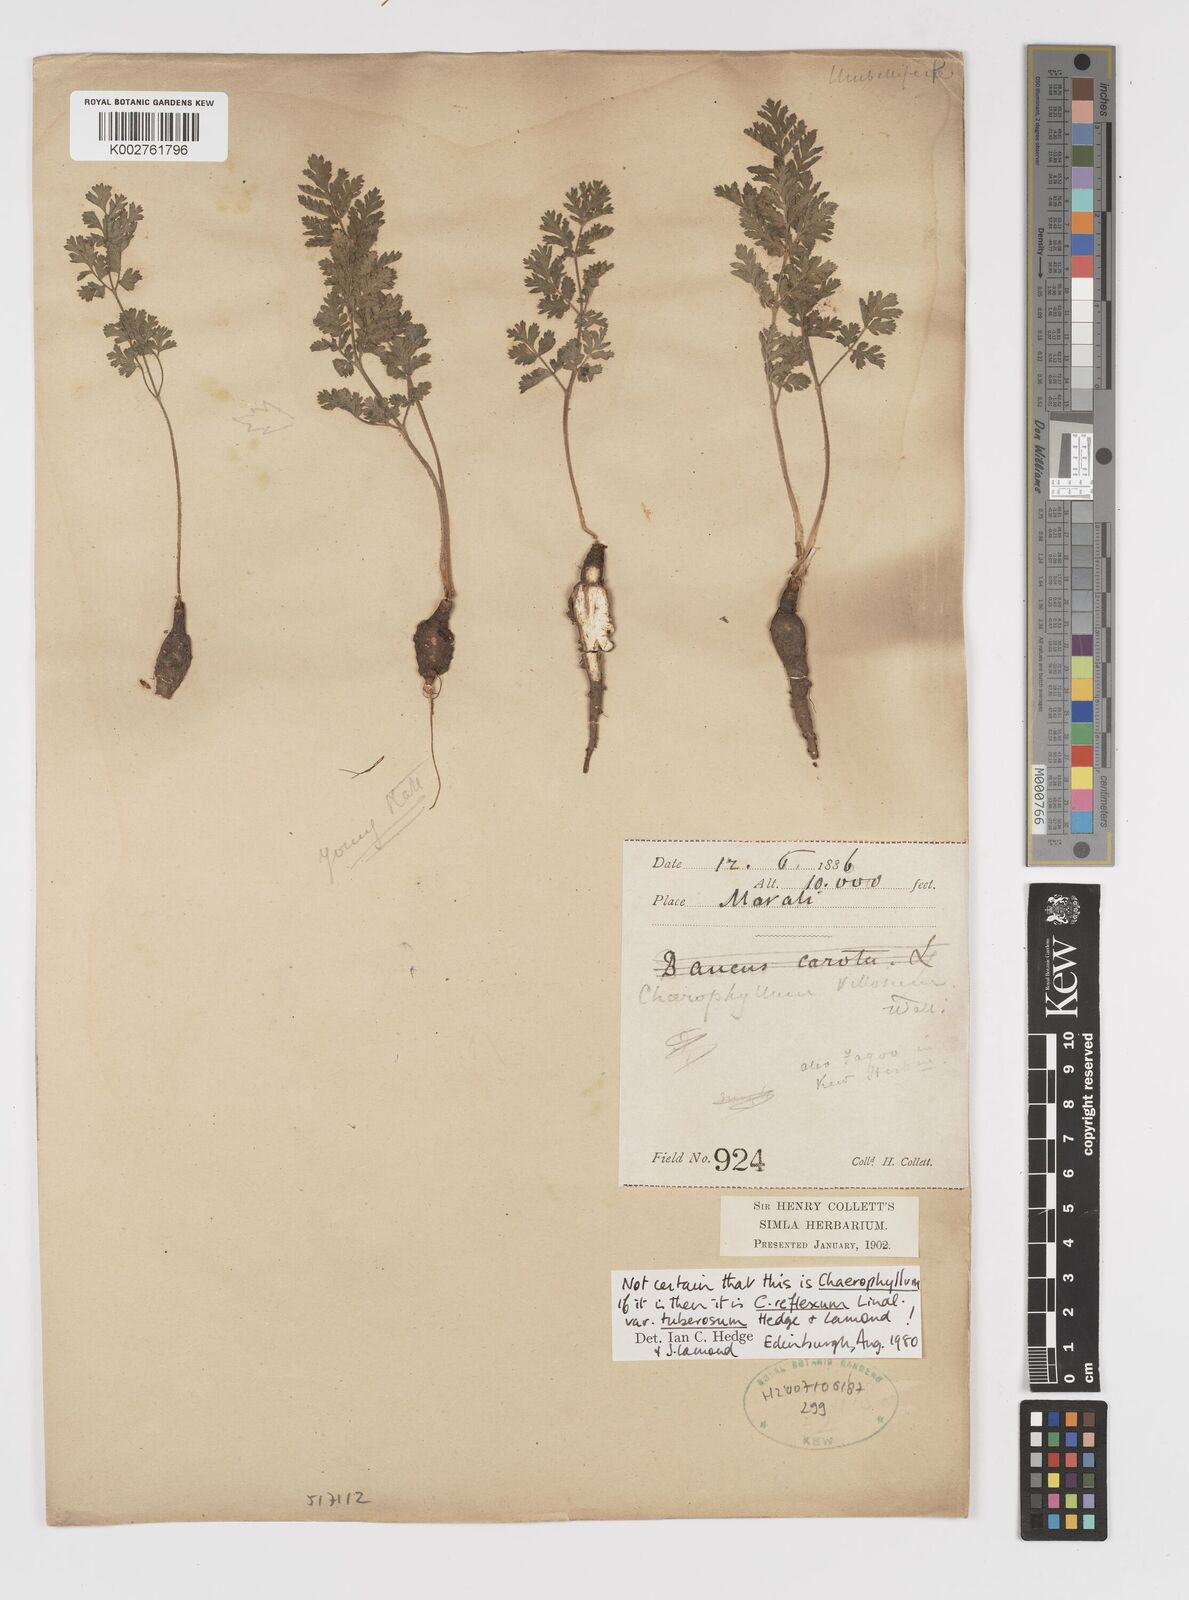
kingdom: Plantae
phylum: Tracheophyta
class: Magnoliopsida
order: Apiales
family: Apiaceae
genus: Chaerophyllum
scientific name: Chaerophyllum reflexum
